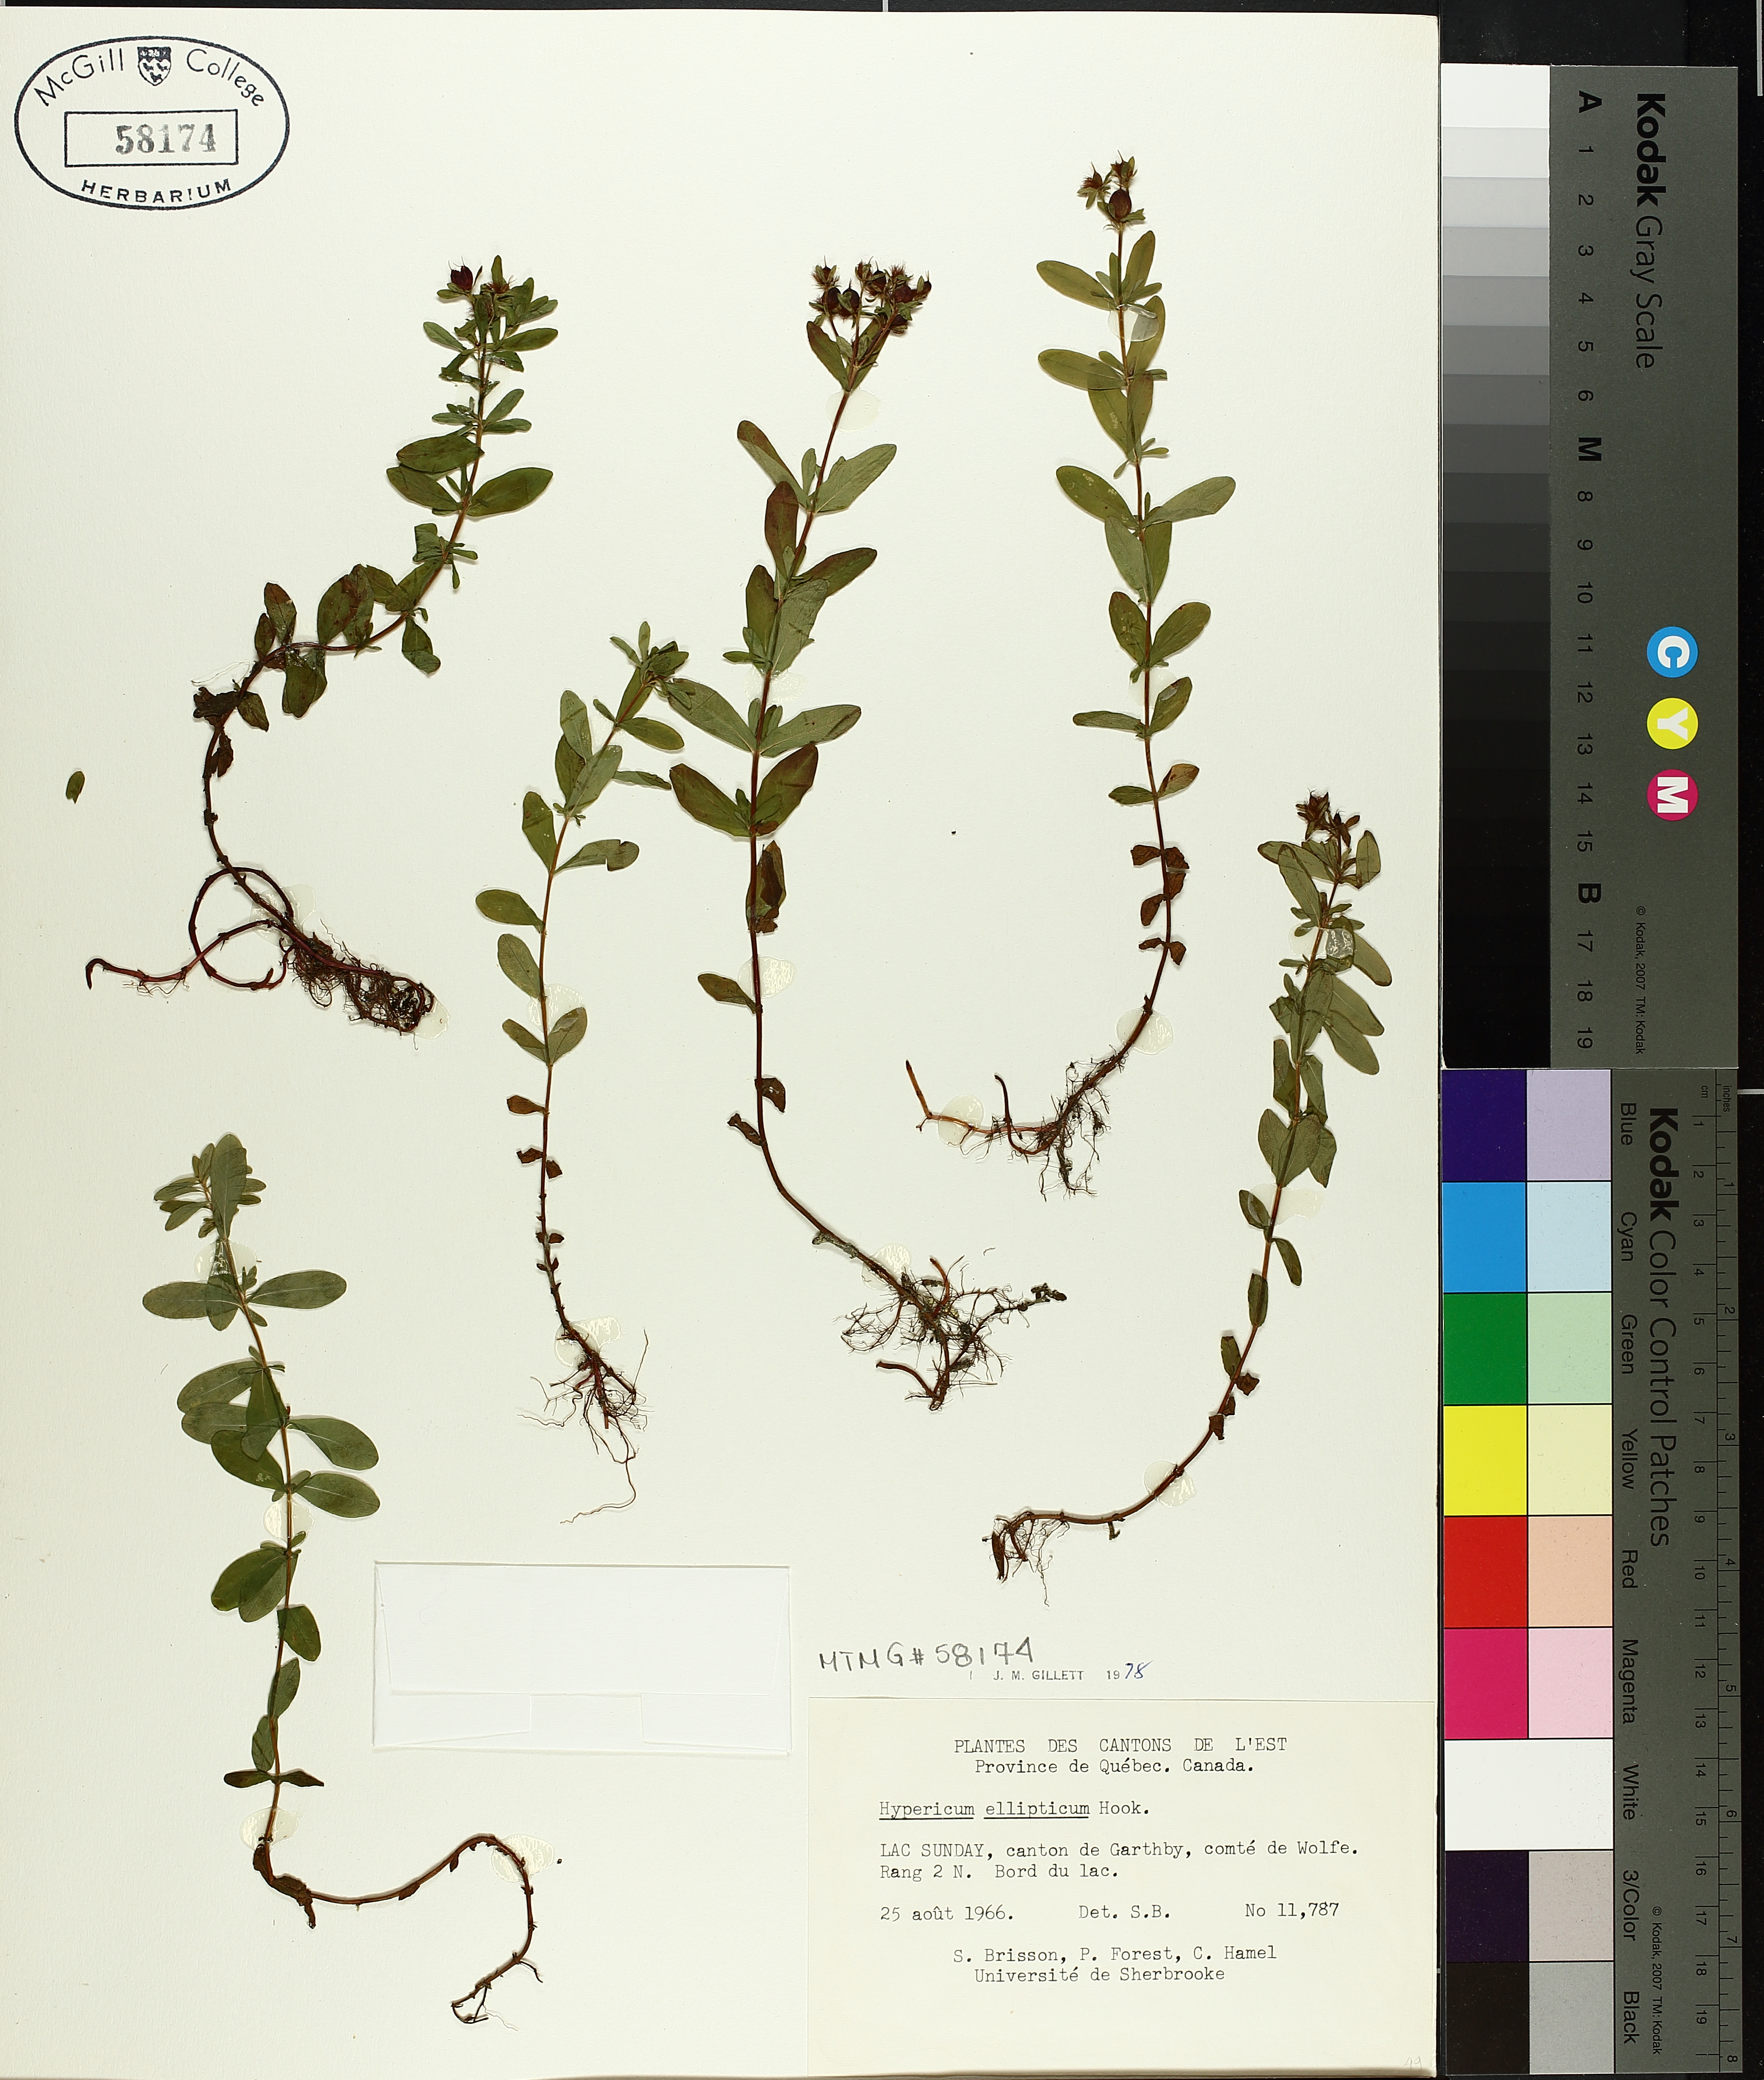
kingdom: Plantae
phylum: Tracheophyta
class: Magnoliopsida
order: Malpighiales
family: Hypericaceae
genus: Hypericum
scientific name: Hypericum ellipticum
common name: Elliptic st. john's-wort
